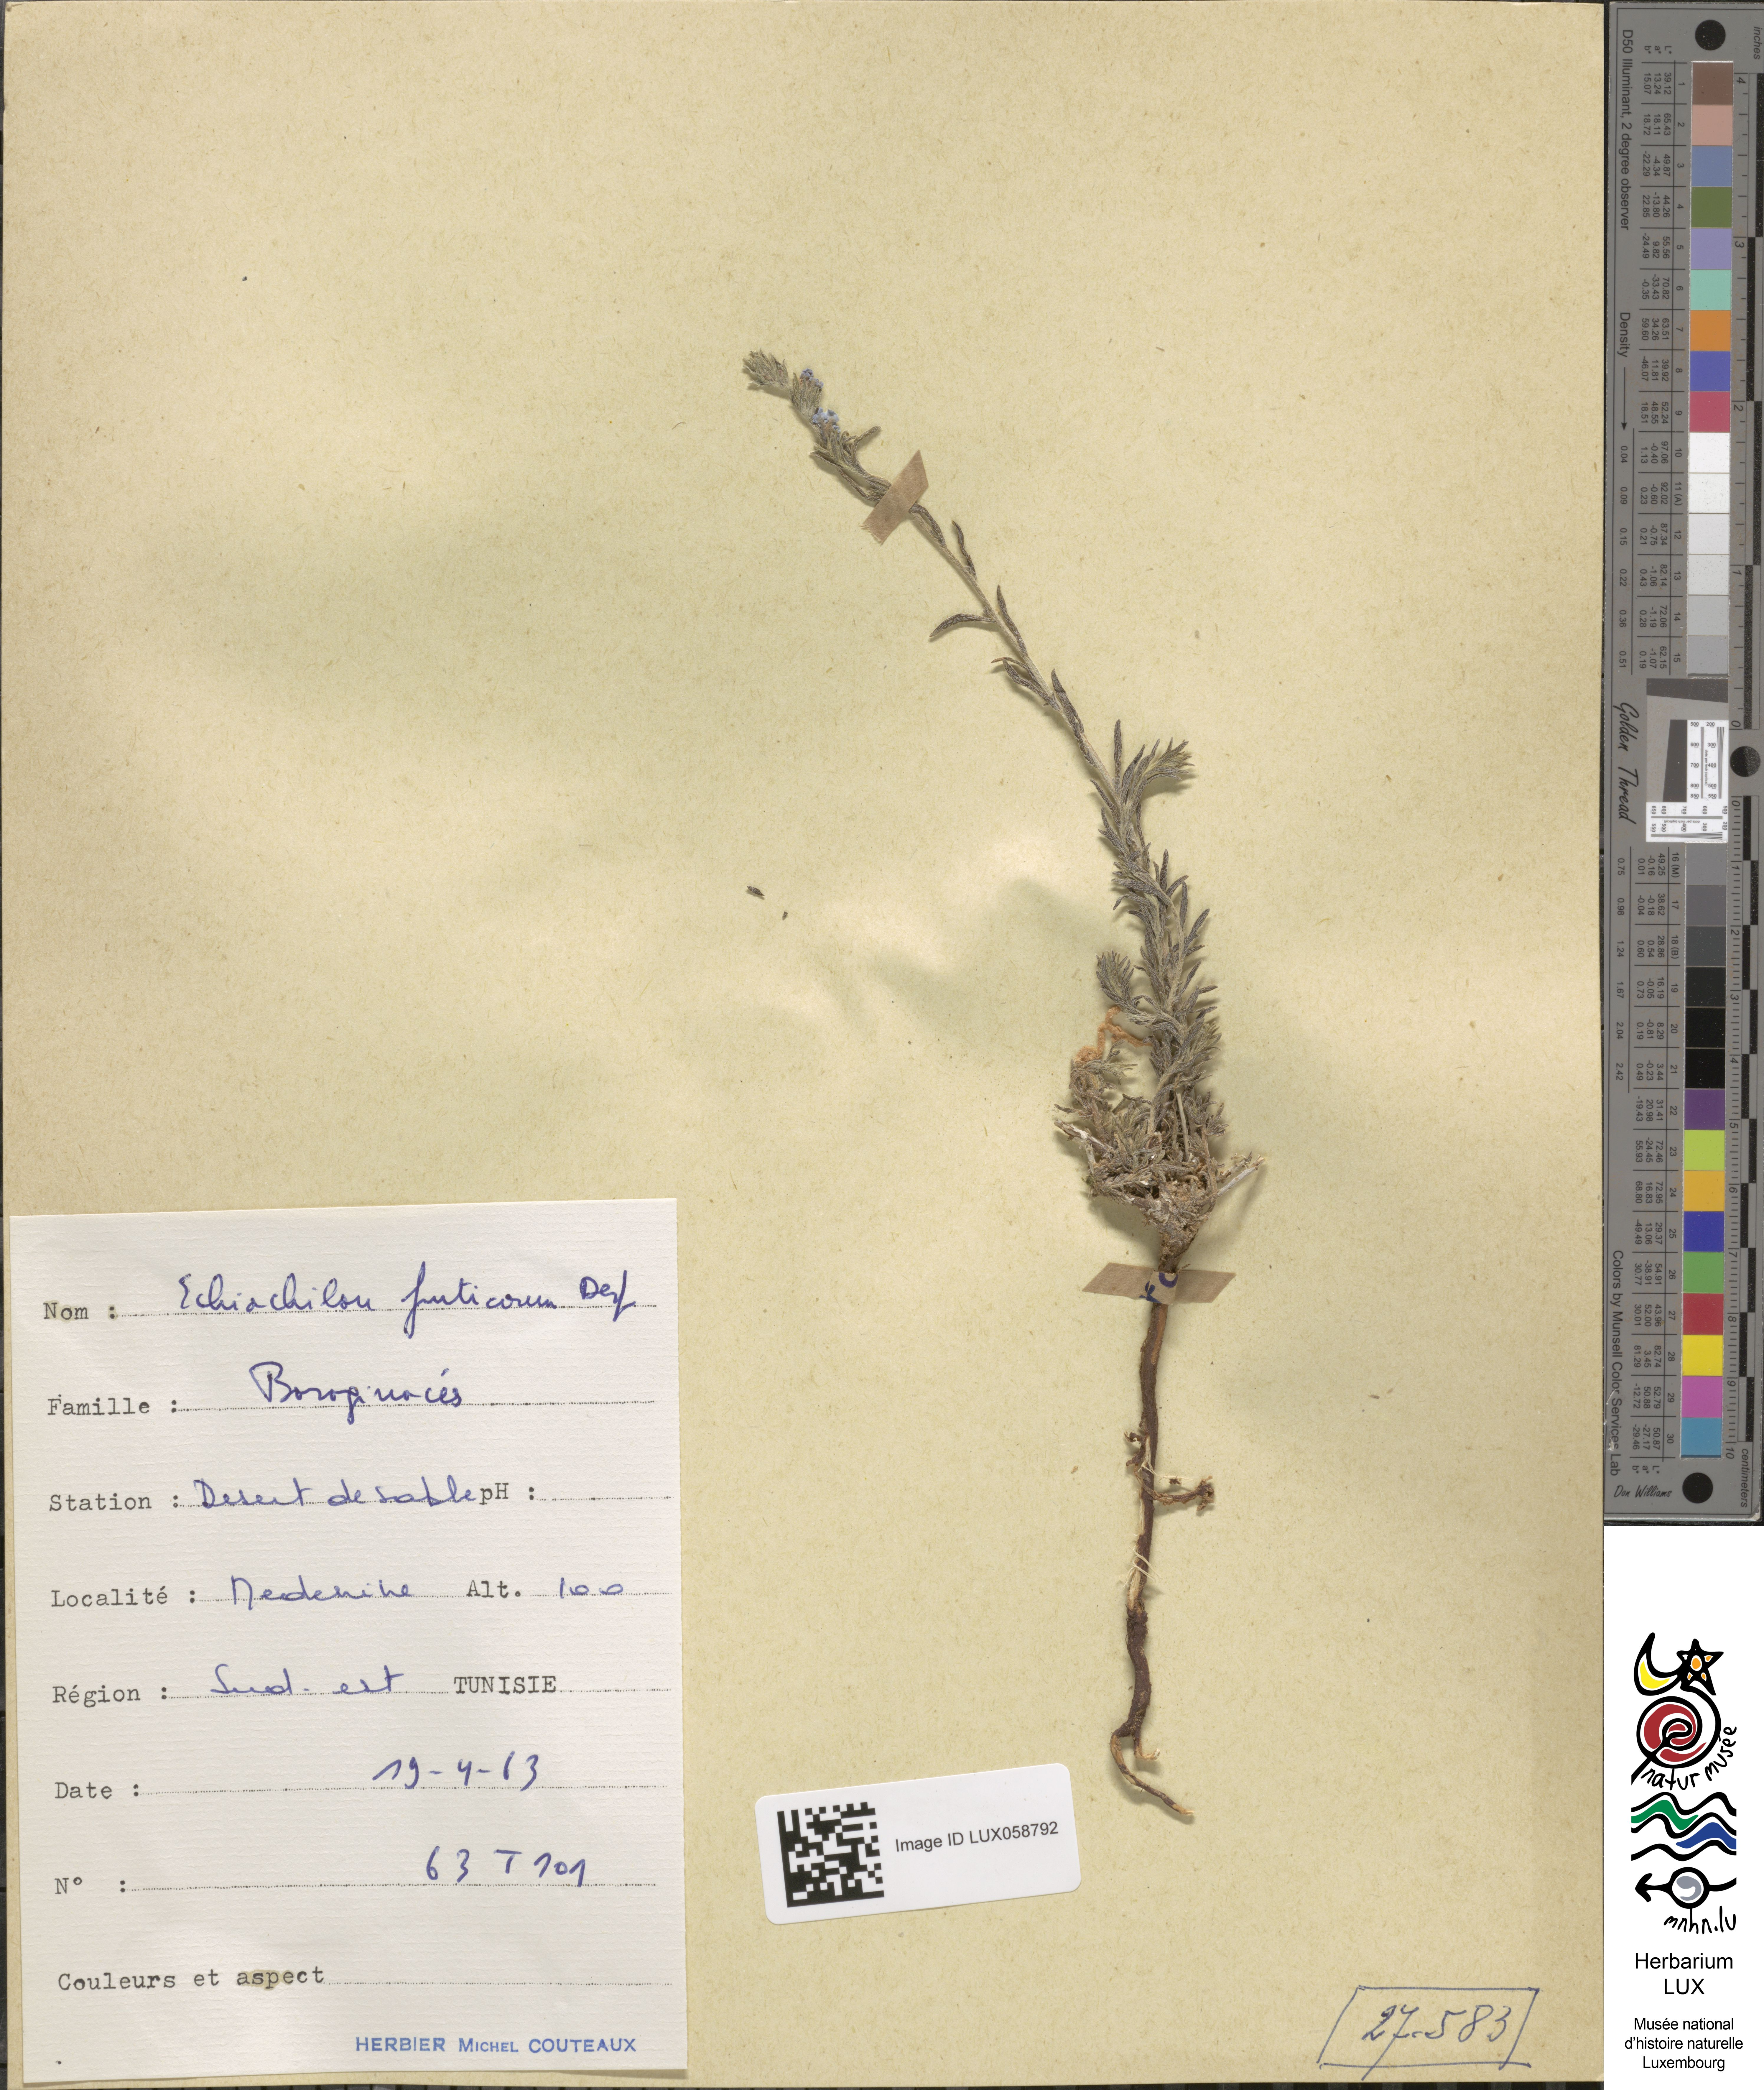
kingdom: Plantae
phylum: Tracheophyta
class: Magnoliopsida
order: Boraginales
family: Boraginaceae
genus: Echiochilon
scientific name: Echiochilon fruticosum
